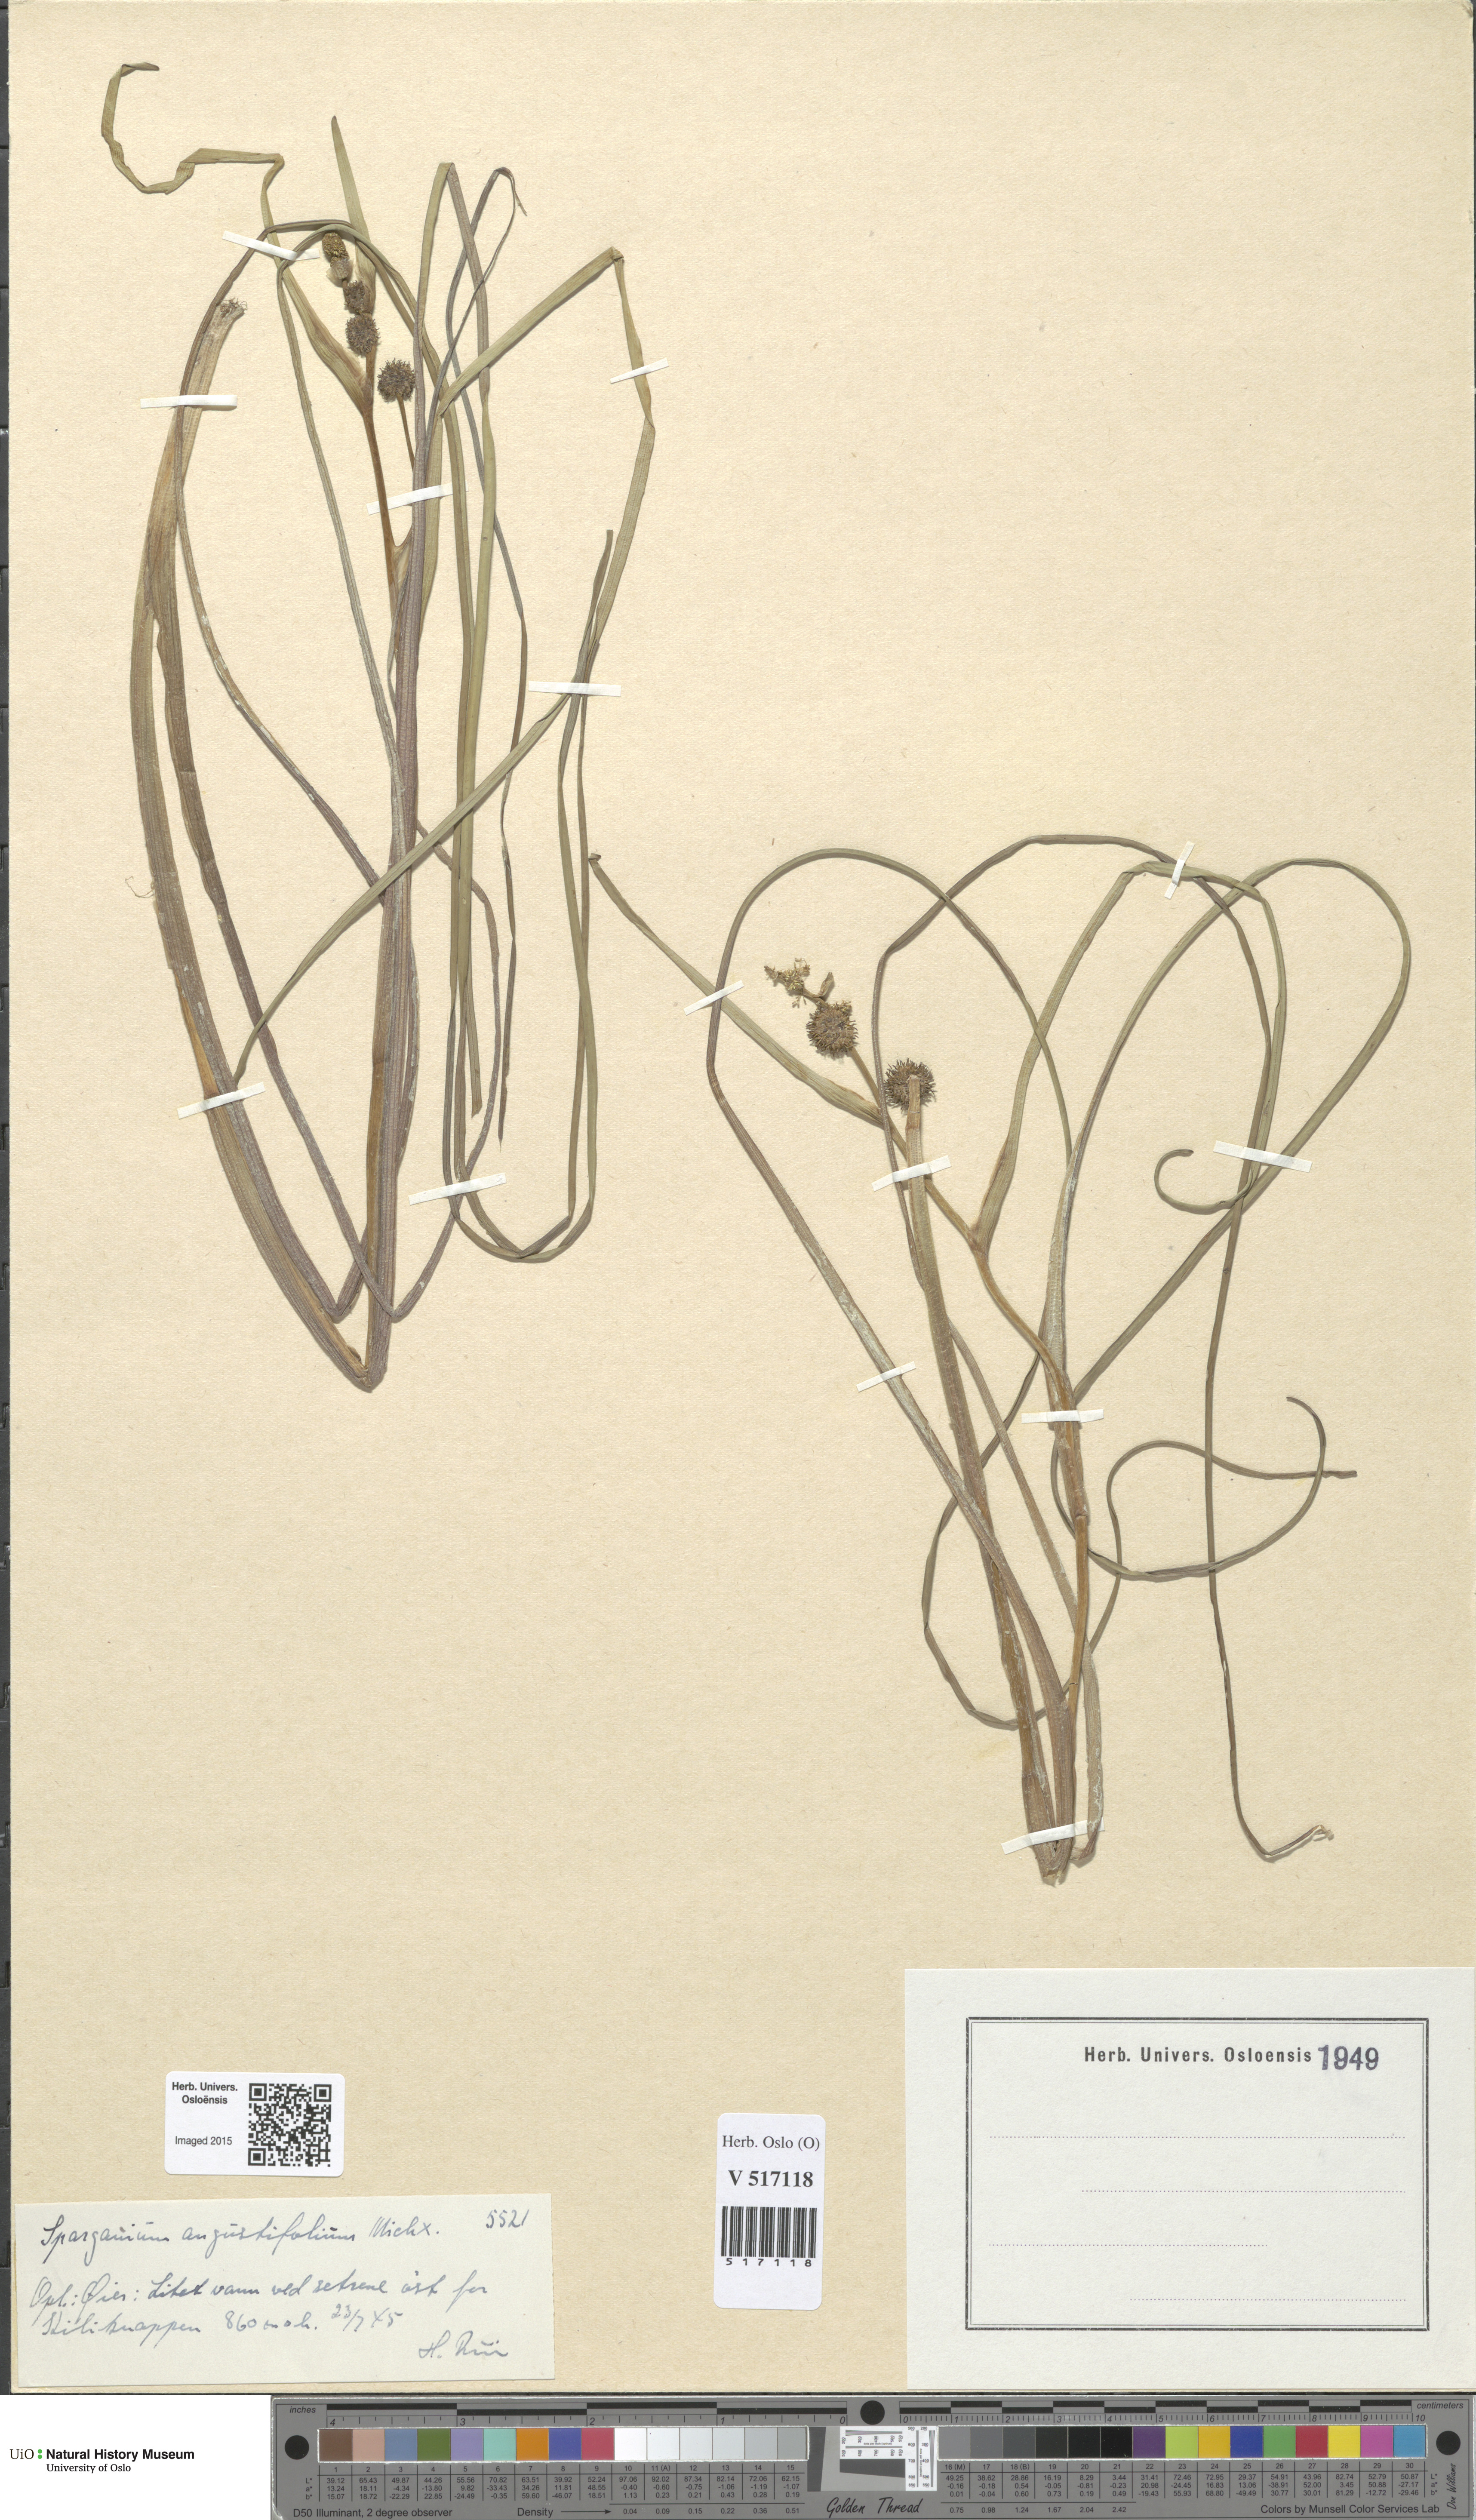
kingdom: Plantae
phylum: Tracheophyta
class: Liliopsida
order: Poales
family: Typhaceae
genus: Sparganium
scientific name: Sparganium angustifolium
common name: Floating bur-reed
